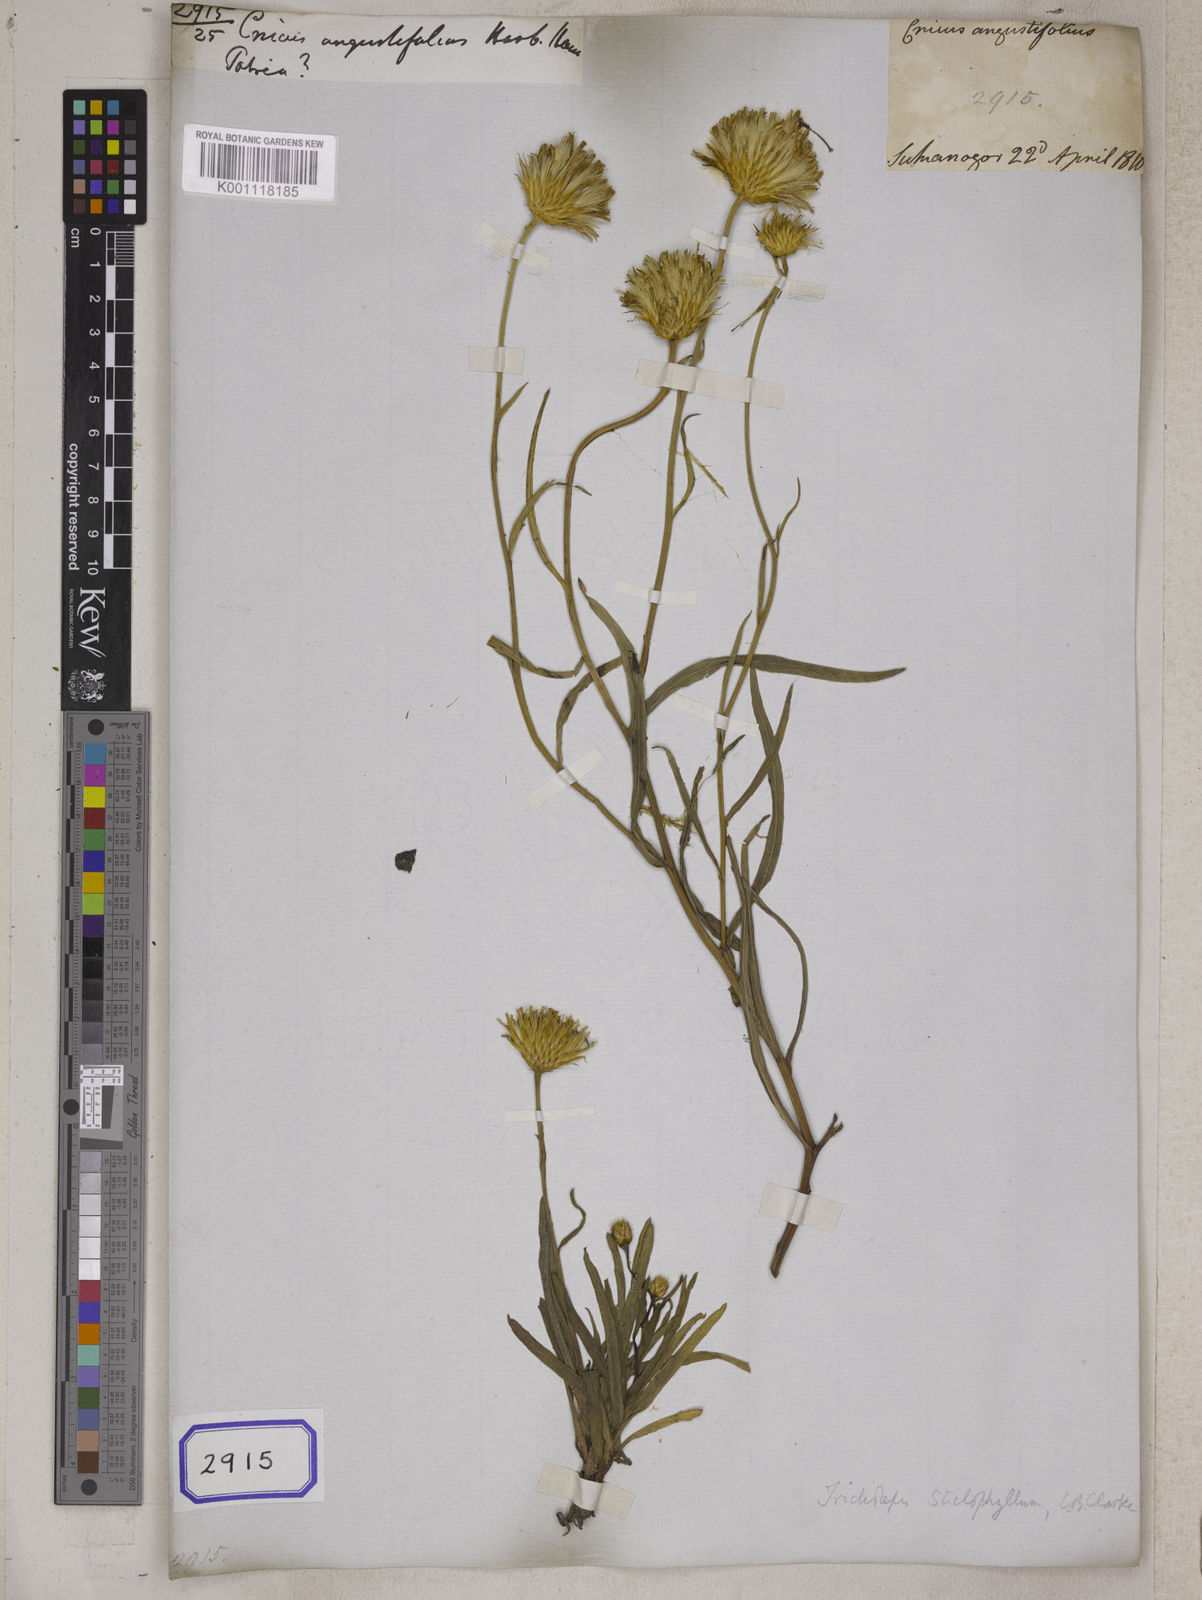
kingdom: Plantae
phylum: Tracheophyta
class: Magnoliopsida
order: Asterales
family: Asteraceae
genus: Tricholepis
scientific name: Tricholepis stictophyllum
